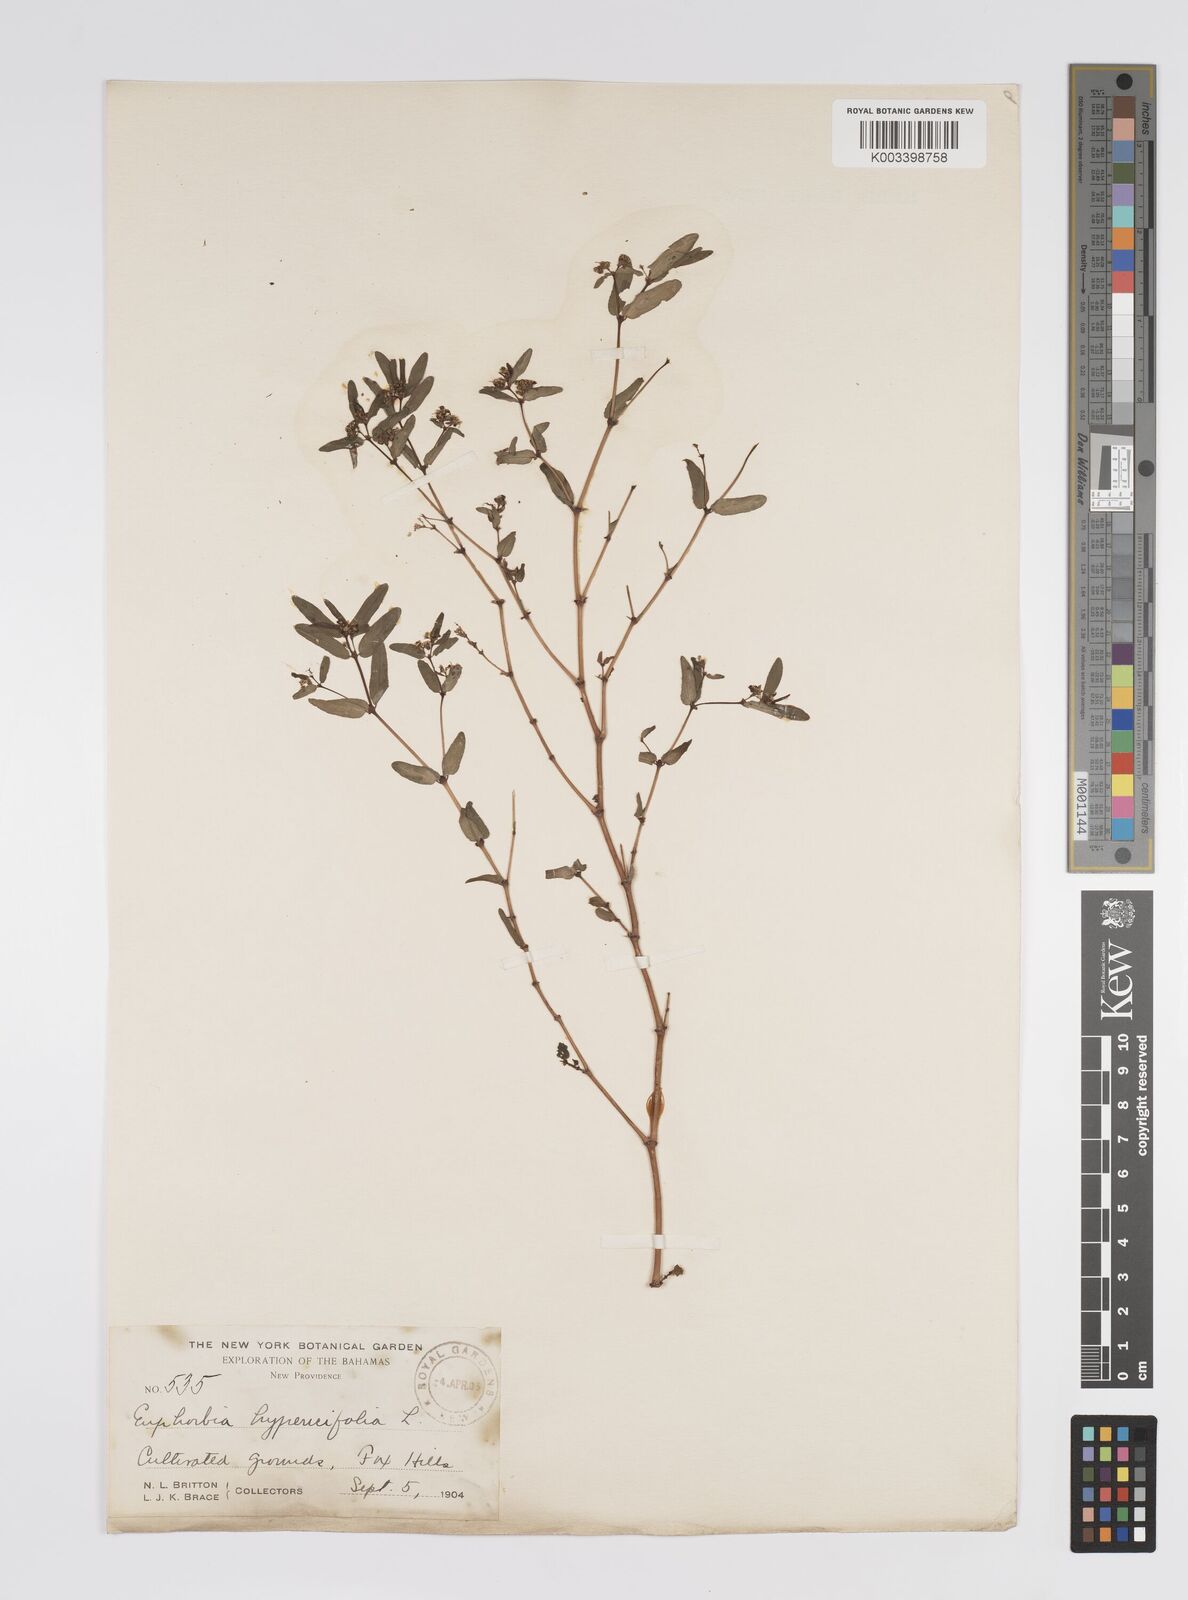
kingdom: Plantae
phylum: Tracheophyta
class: Magnoliopsida
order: Malpighiales
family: Euphorbiaceae
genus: Euphorbia
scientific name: Euphorbia
